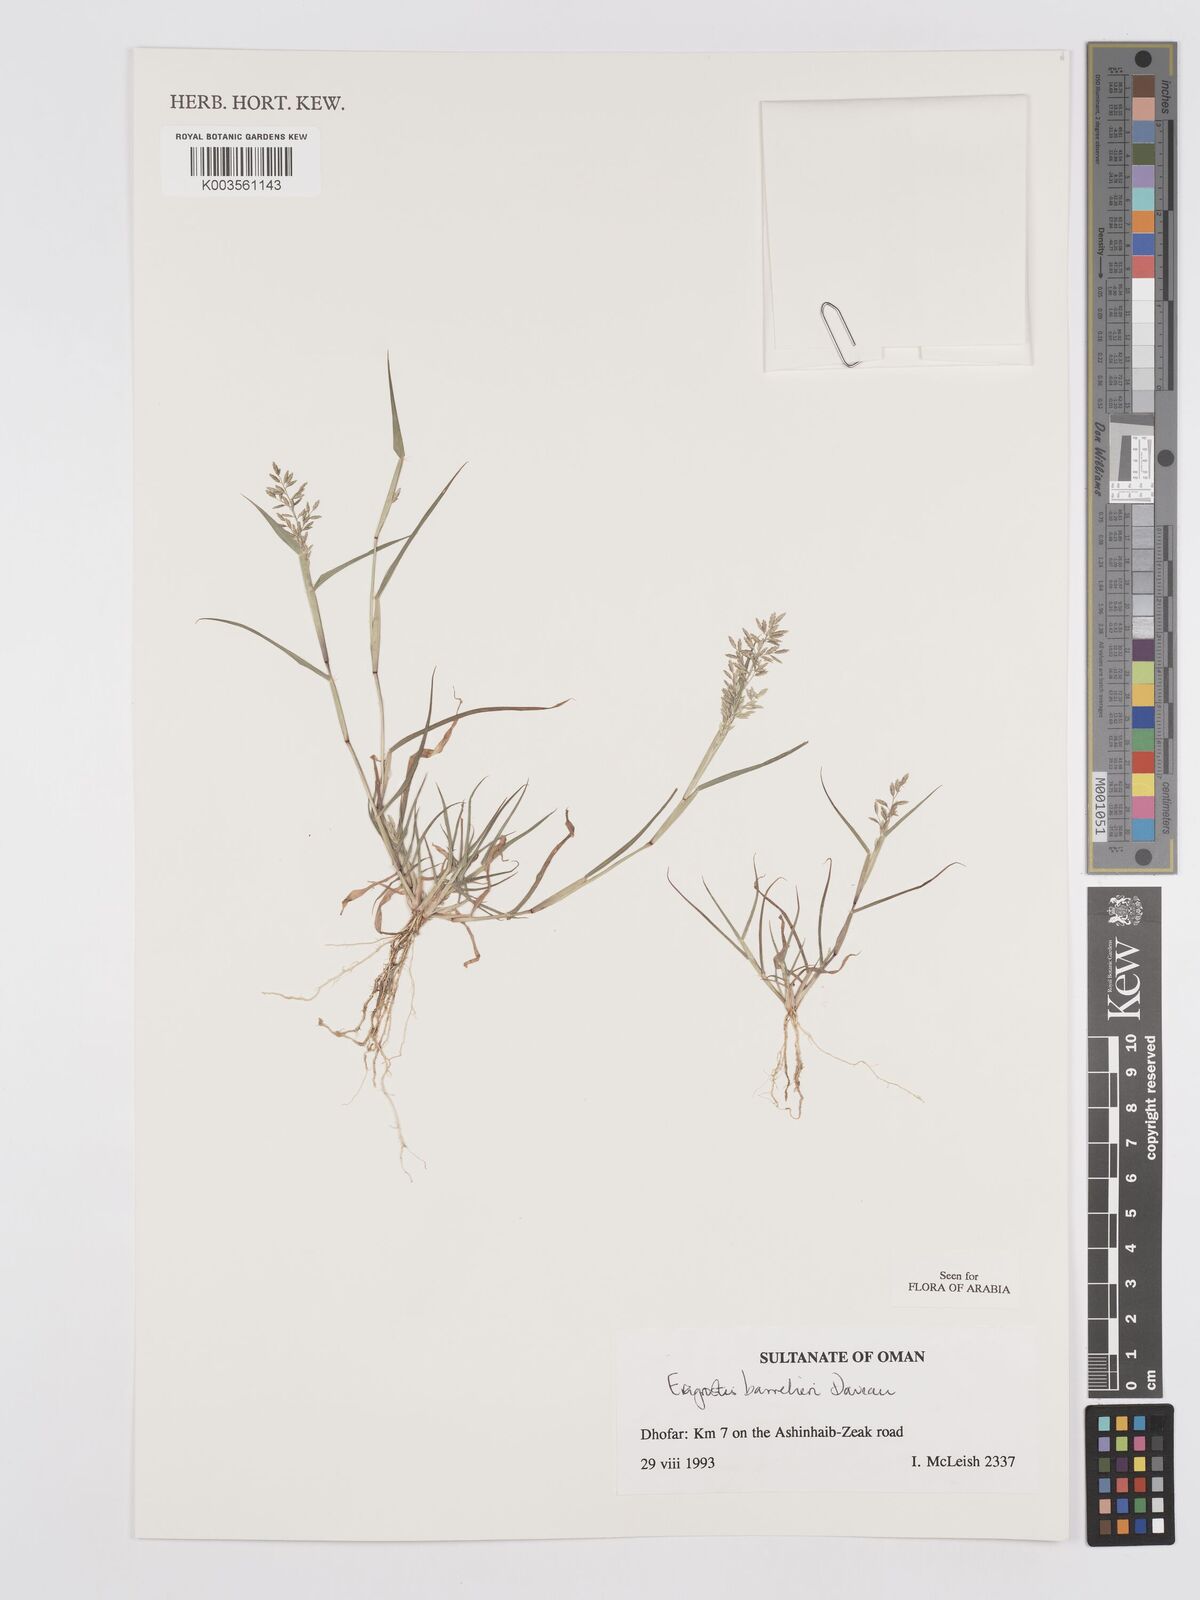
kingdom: Plantae
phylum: Tracheophyta
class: Liliopsida
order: Poales
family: Poaceae
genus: Eragrostis
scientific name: Eragrostis barrelieri
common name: Mediterranean lovegrass
